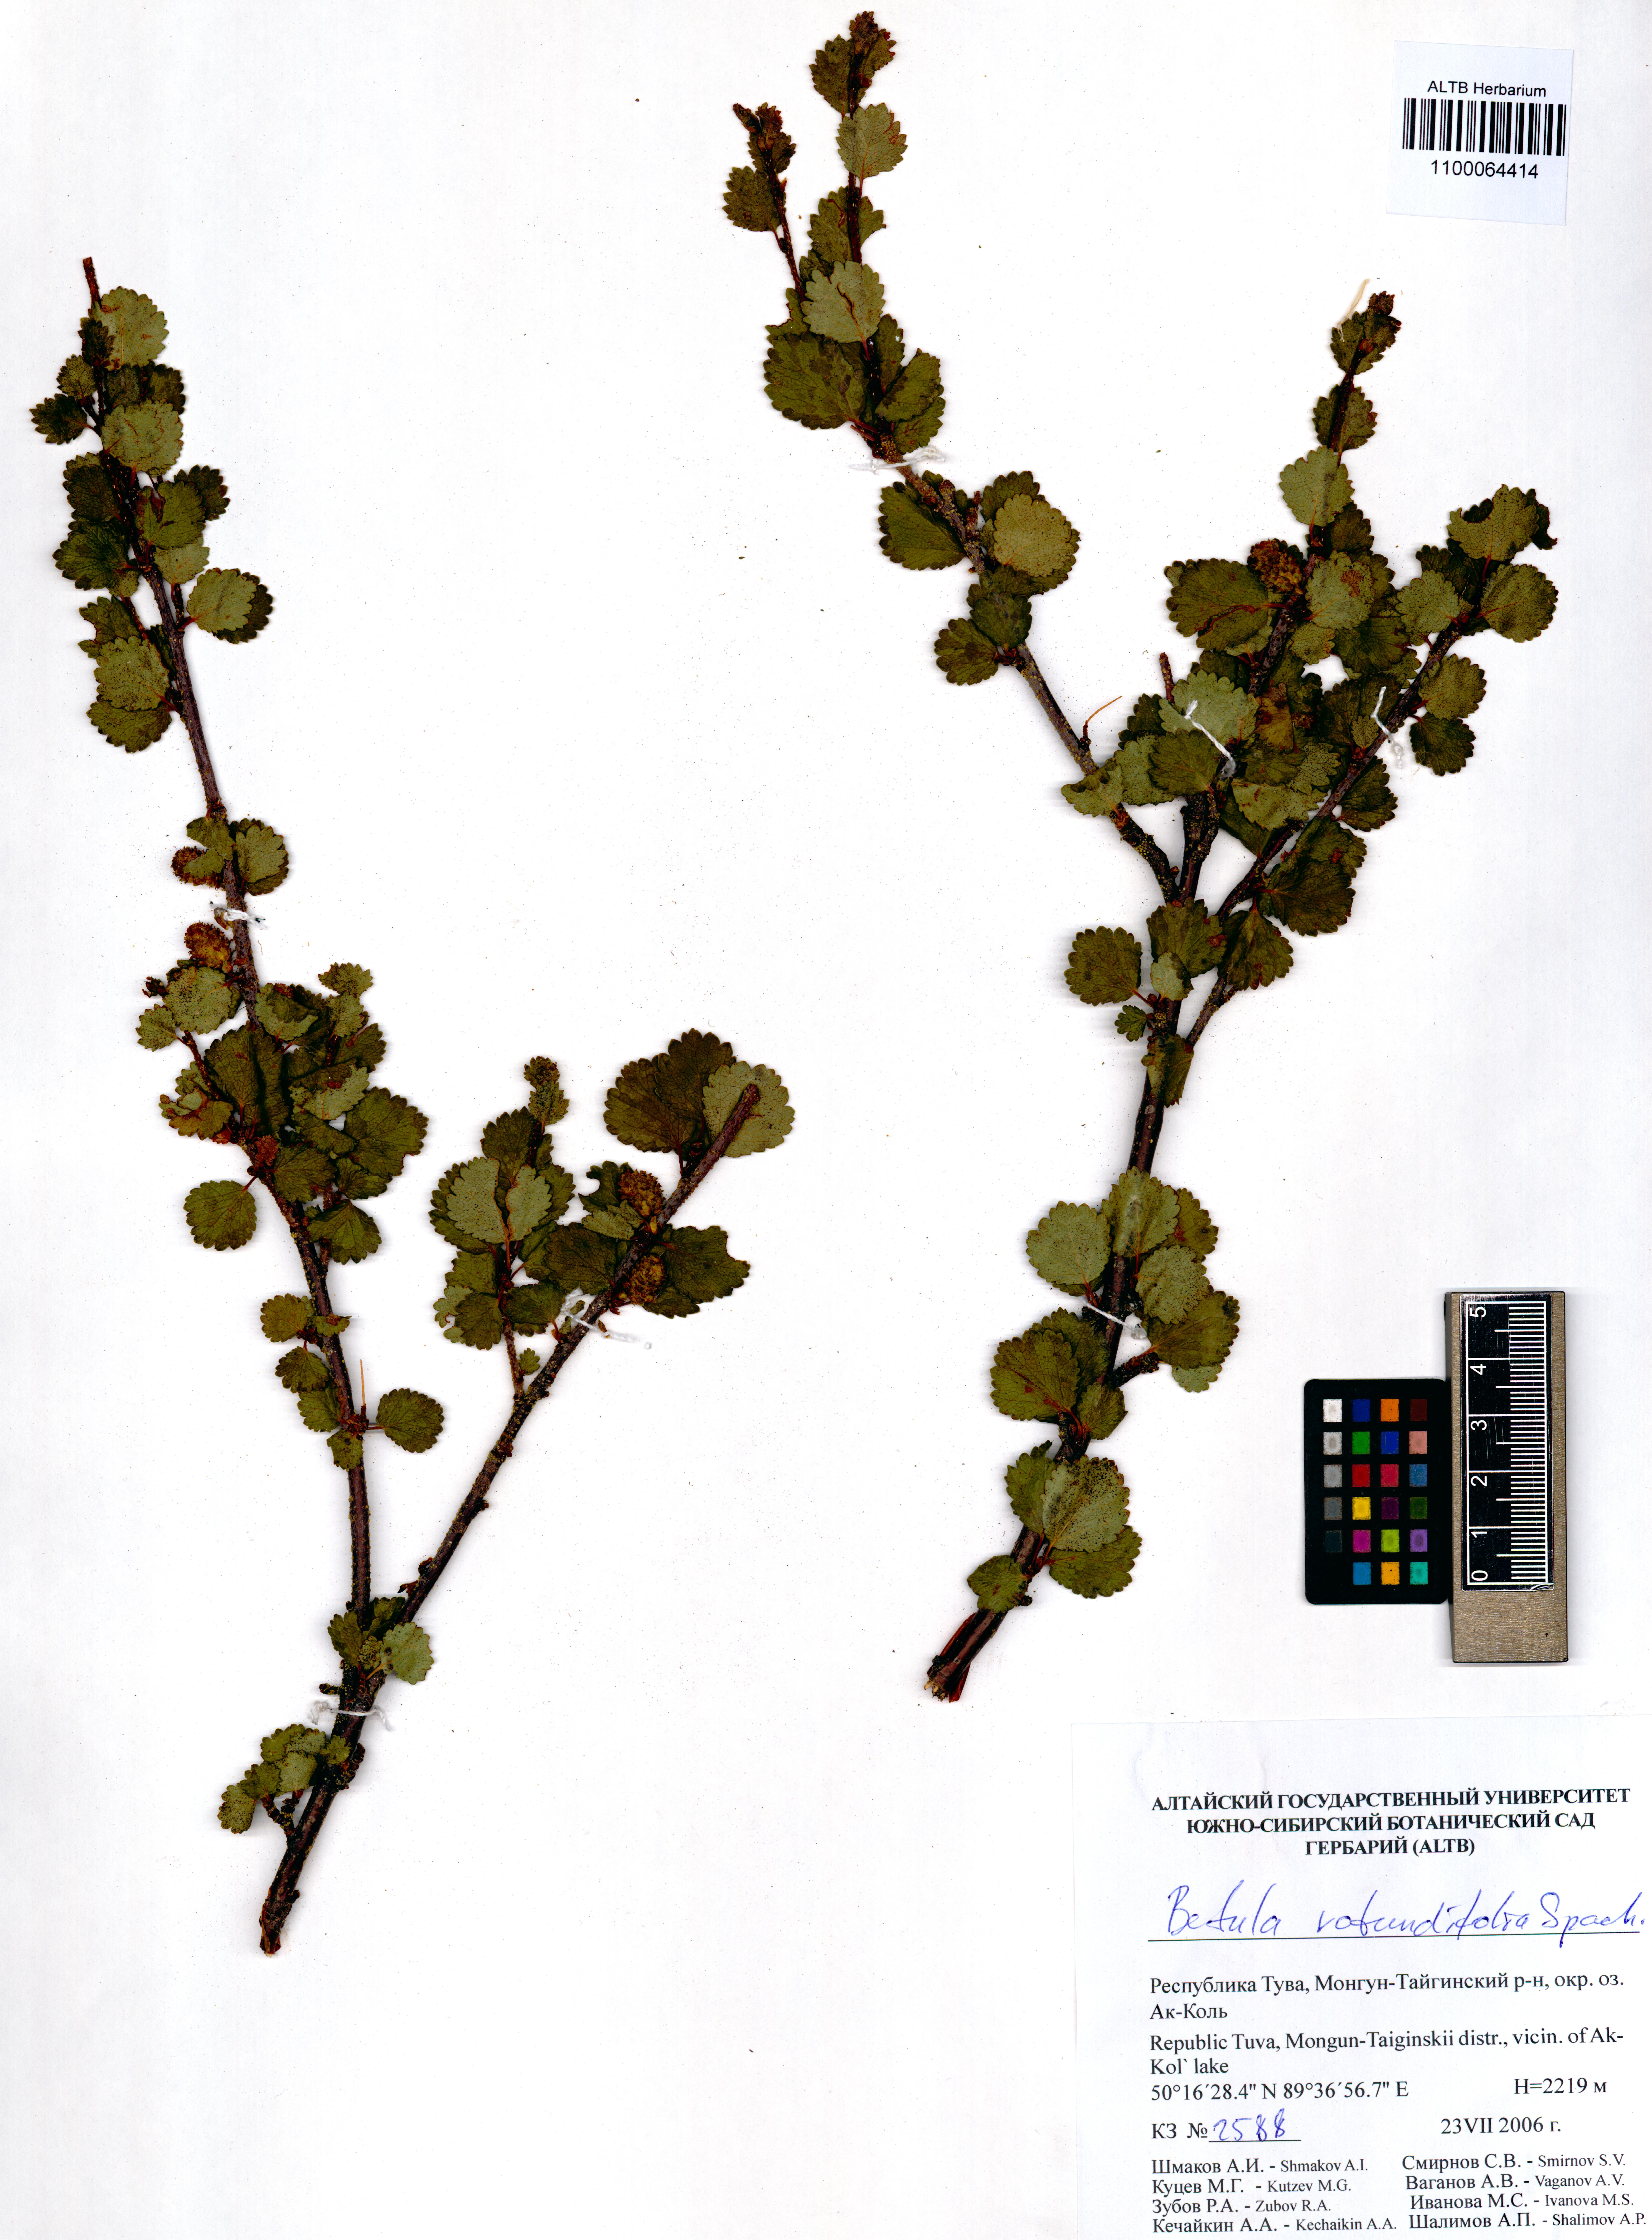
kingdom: Plantae
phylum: Tracheophyta
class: Magnoliopsida
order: Fagales
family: Betulaceae
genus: Betula
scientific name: Betula glandulosa
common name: Dwarf birch
